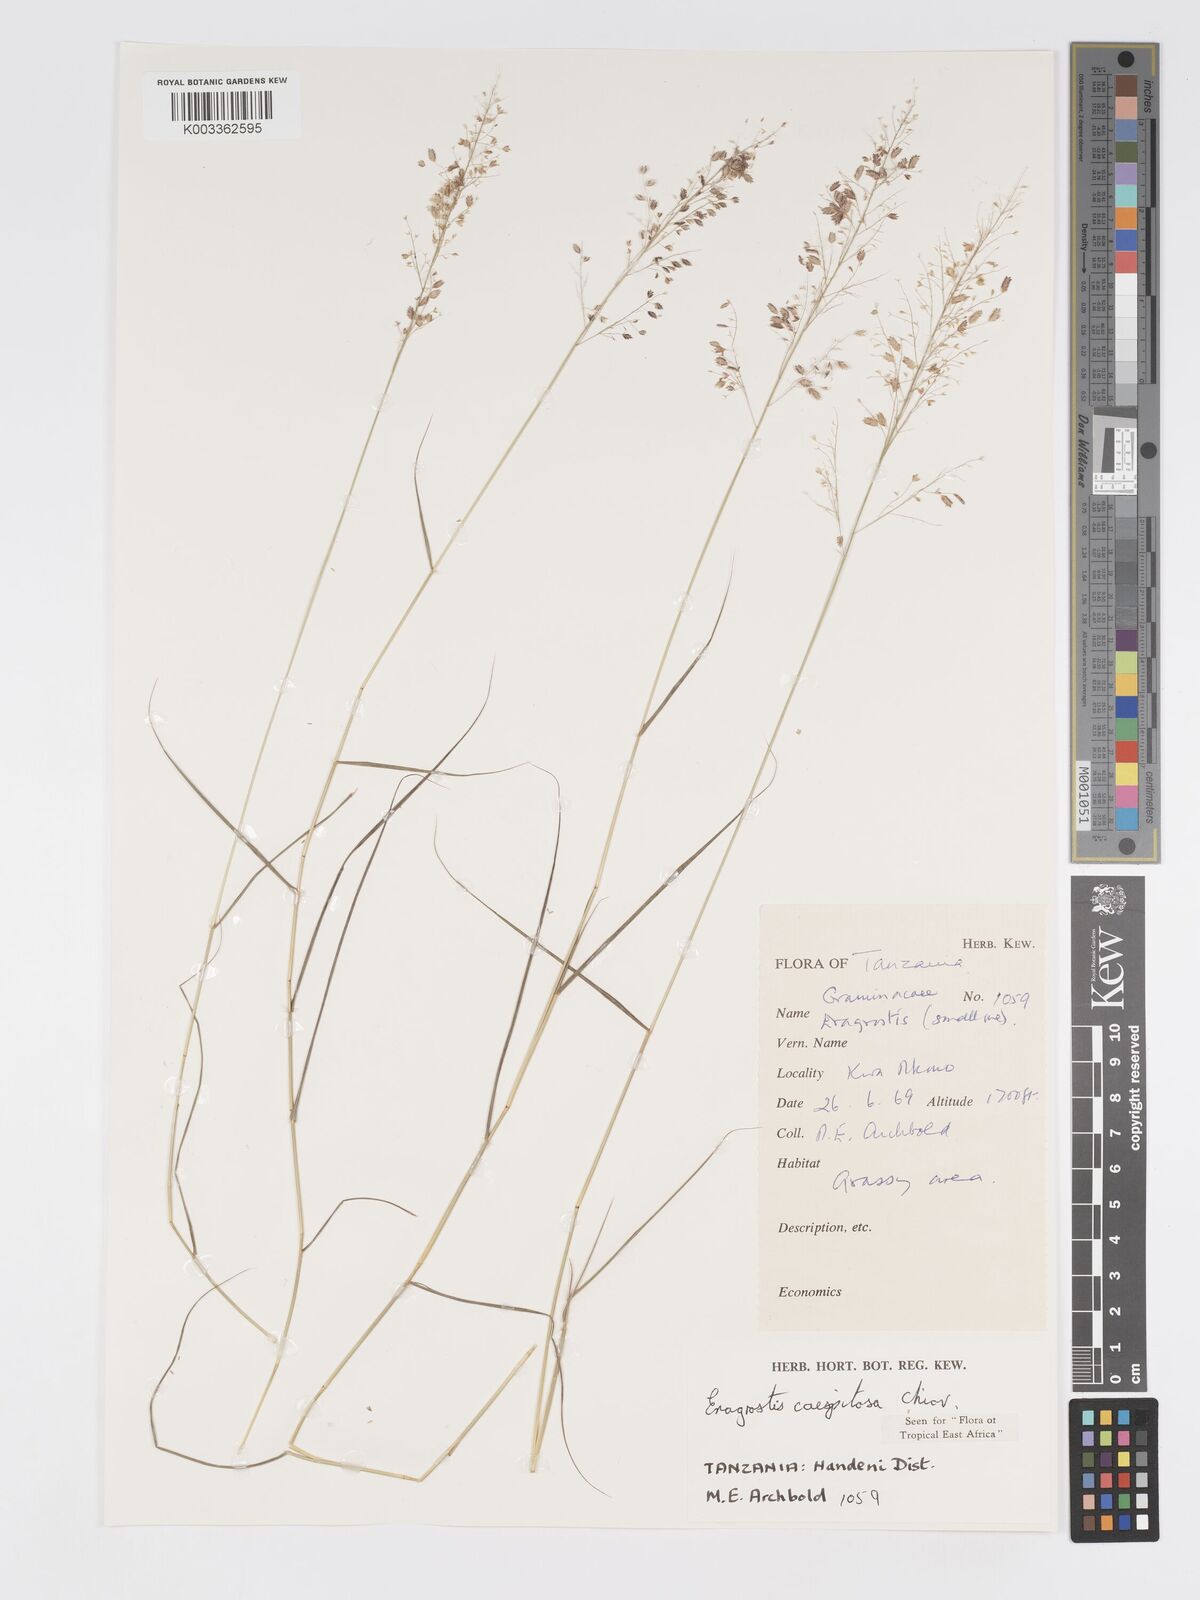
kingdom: Plantae
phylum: Tracheophyta
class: Liliopsida
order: Poales
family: Poaceae
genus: Eragrostis
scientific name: Eragrostis caespitosa
